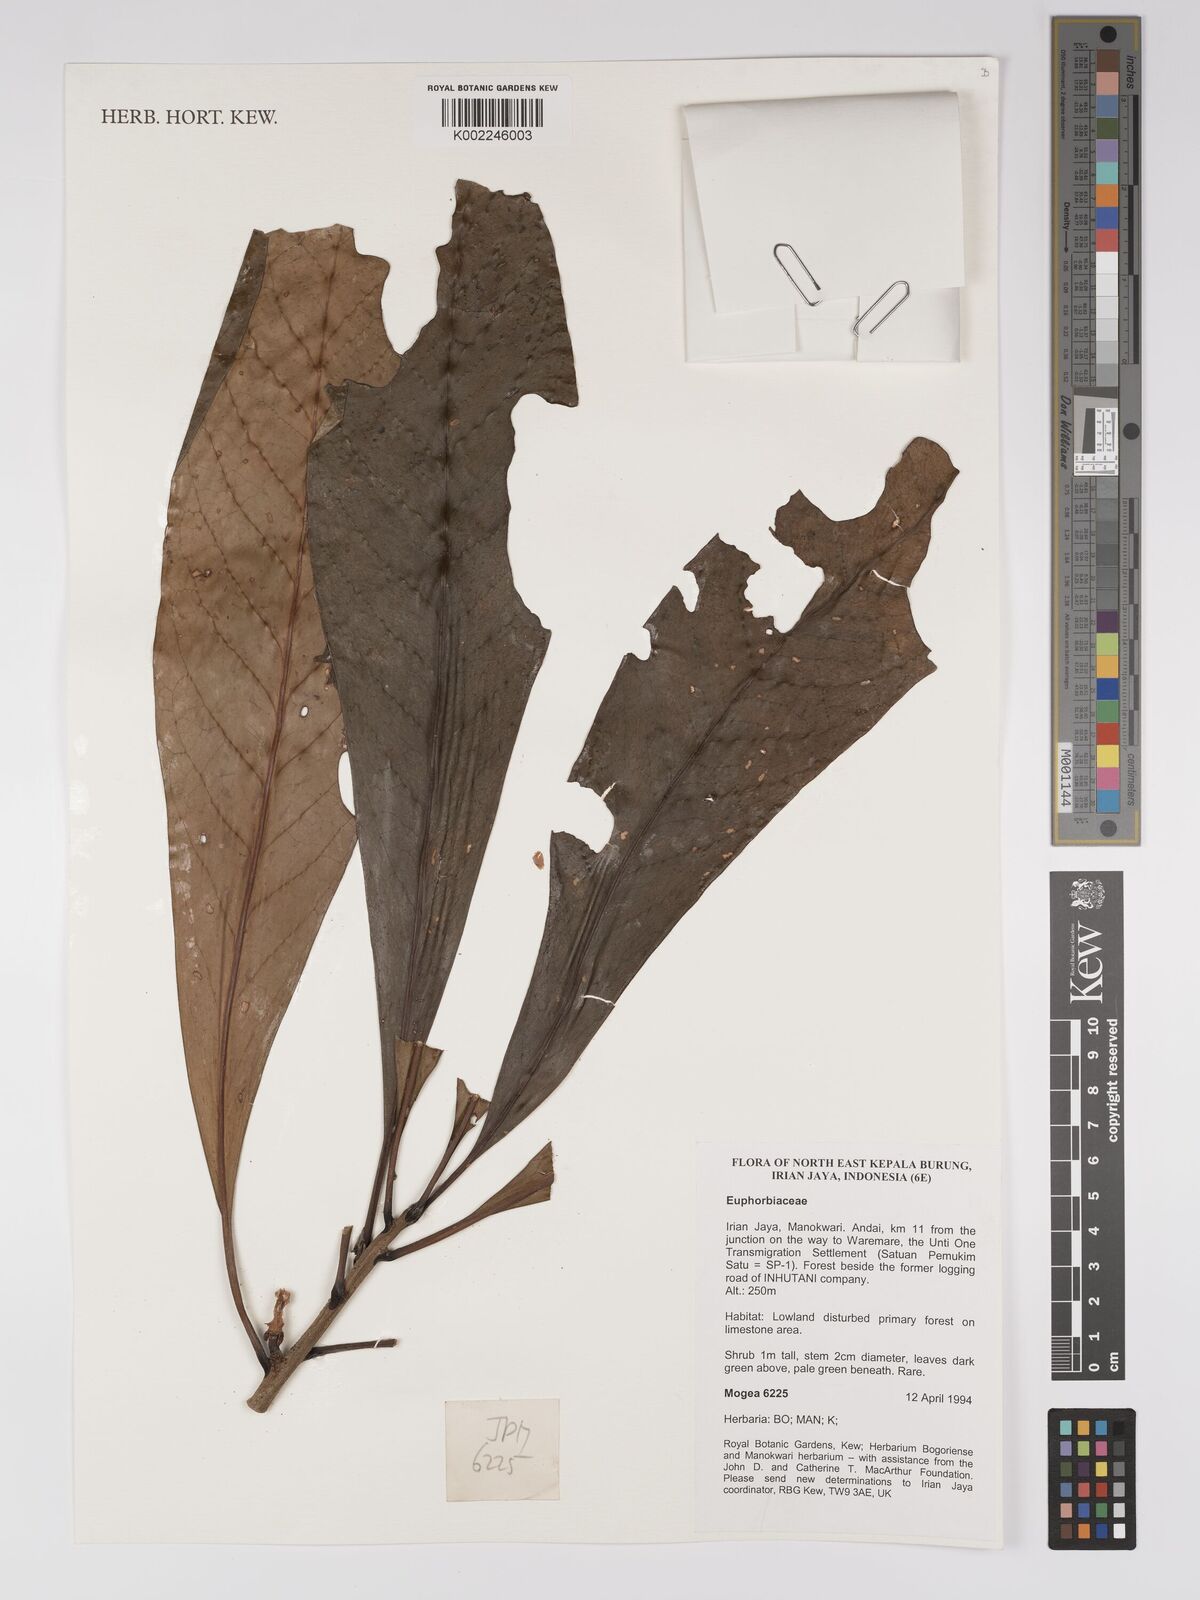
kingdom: Plantae
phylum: Tracheophyta
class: Magnoliopsida
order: Malpighiales
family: Euphorbiaceae
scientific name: Euphorbiaceae
